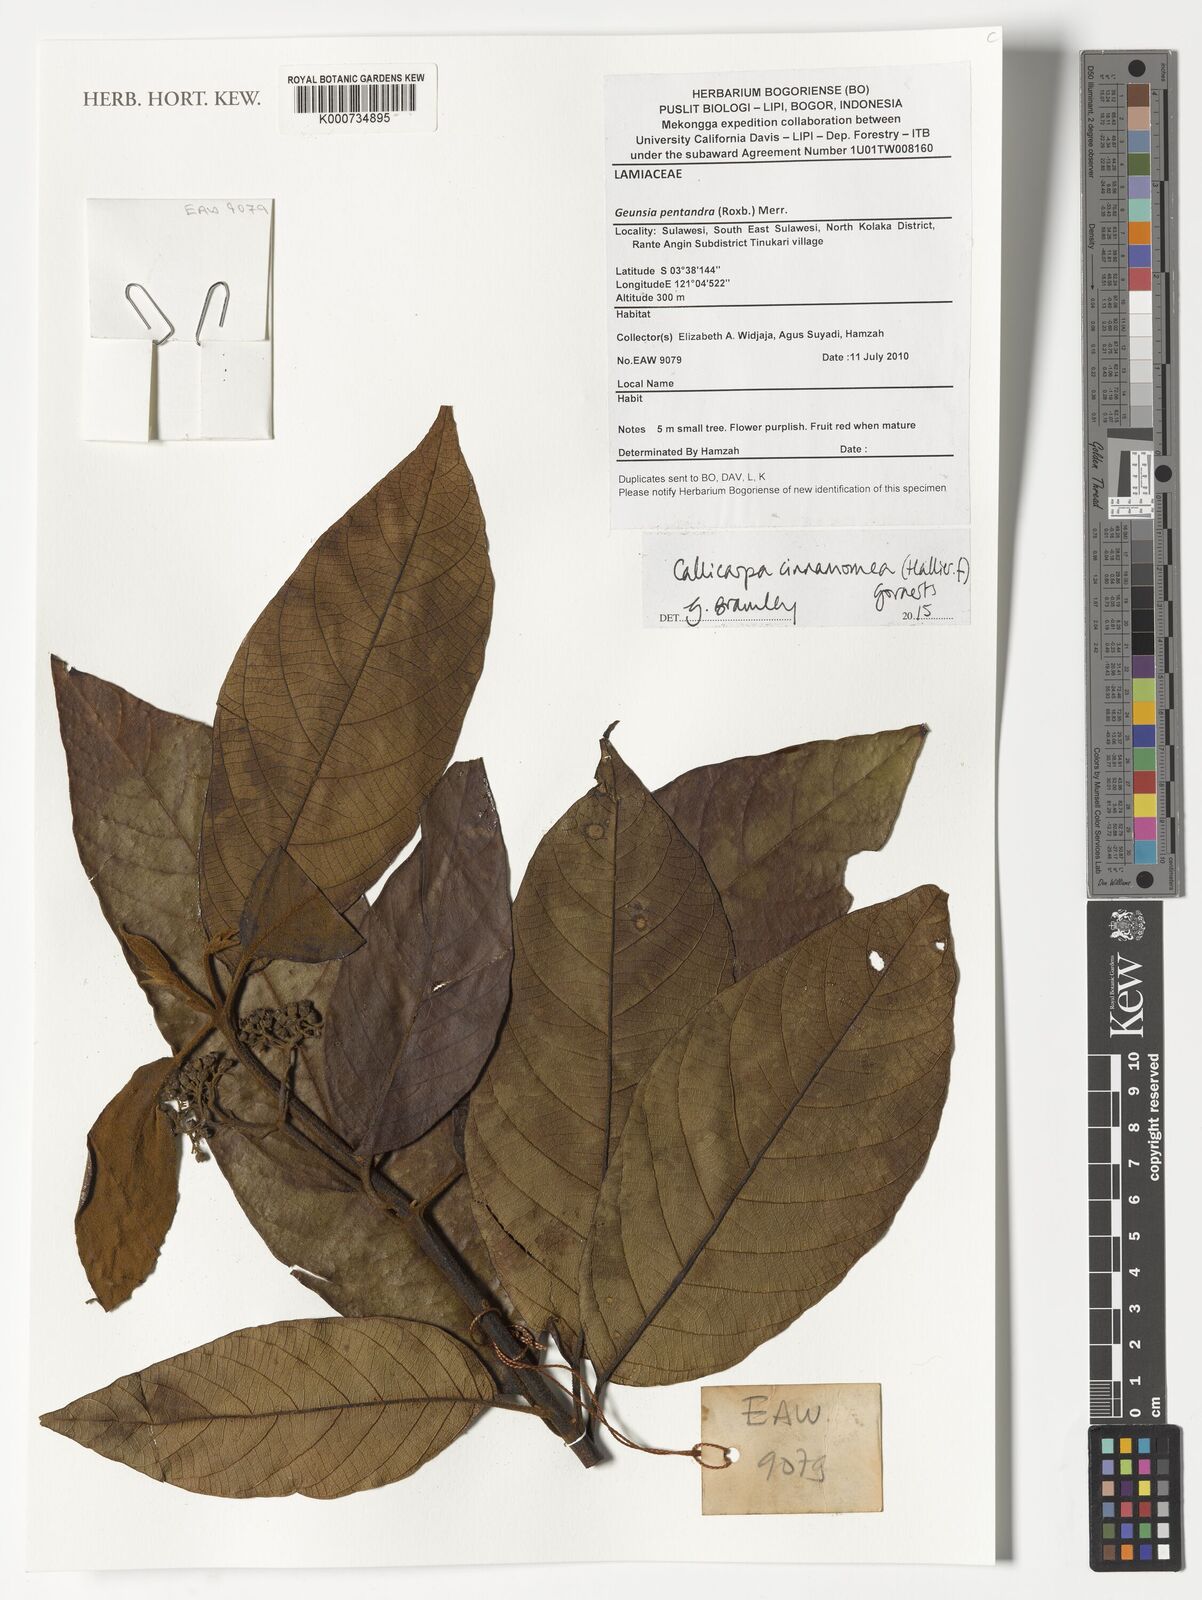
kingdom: Plantae
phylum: Tracheophyta
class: Magnoliopsida
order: Lamiales
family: Lamiaceae
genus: Callicarpa
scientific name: Callicarpa cinnamomea
